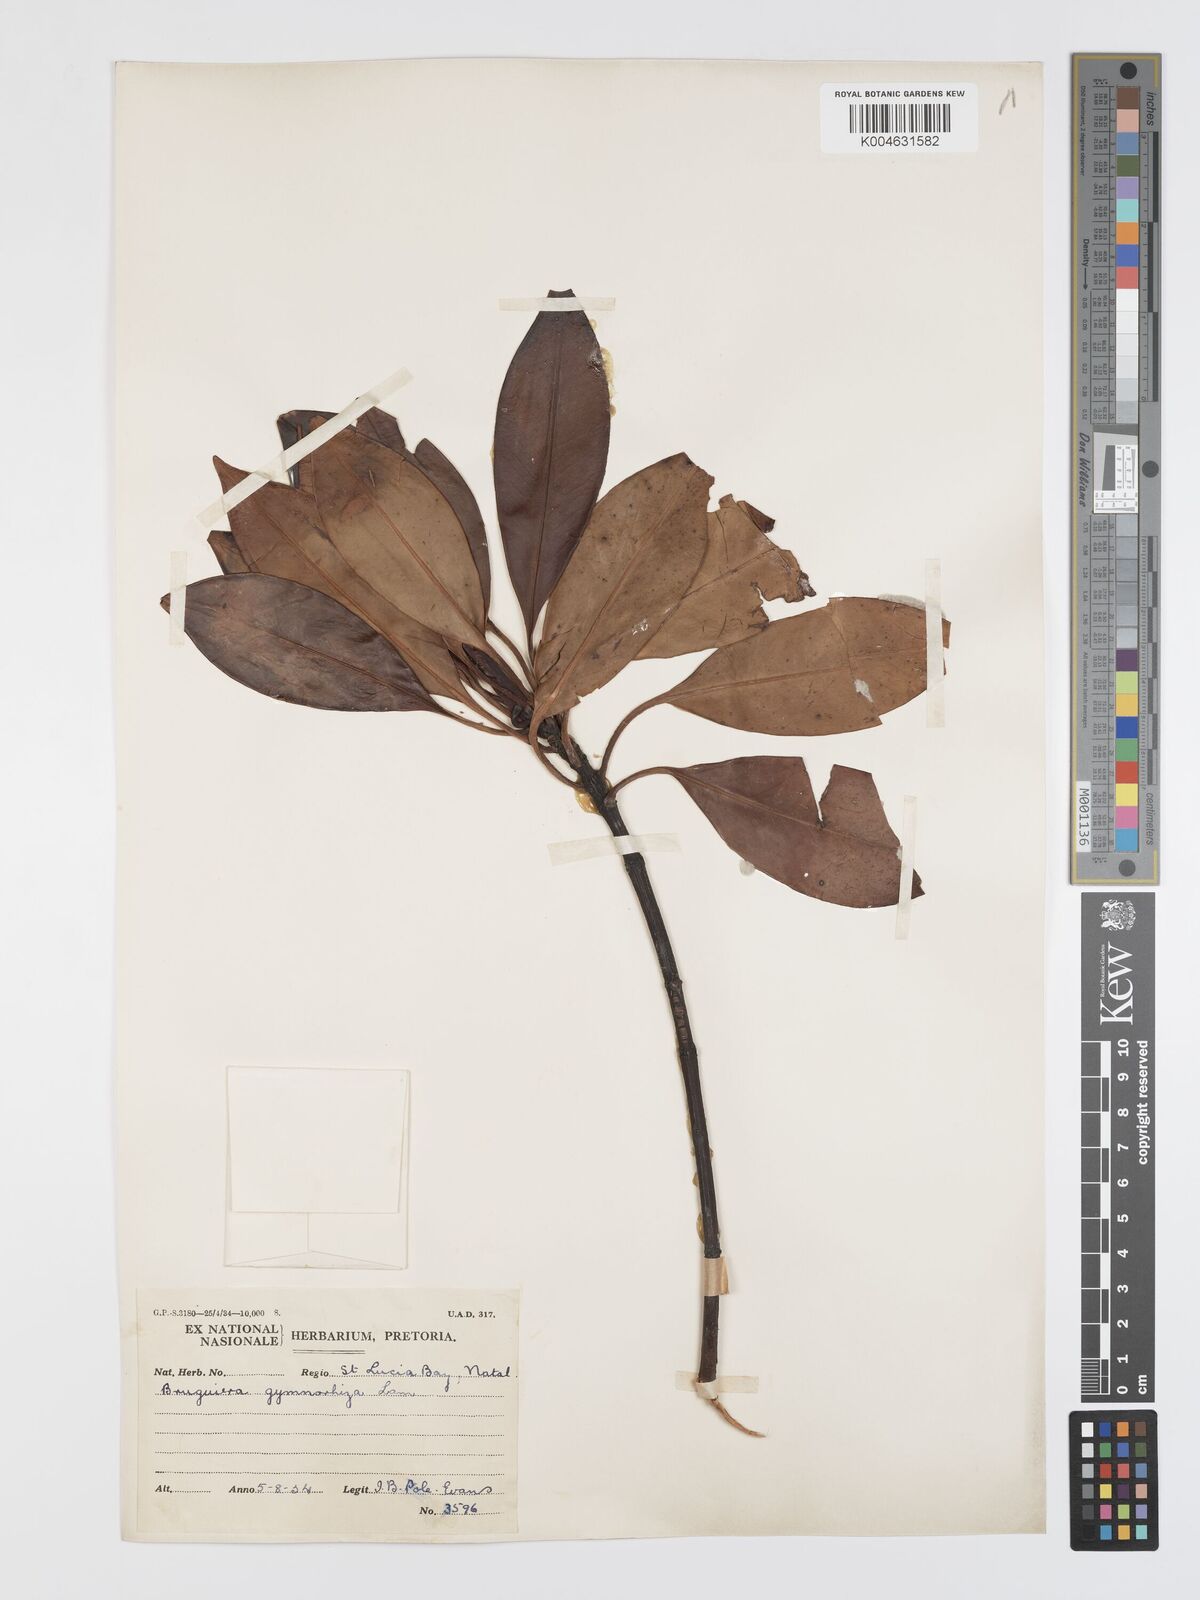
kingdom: Plantae
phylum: Tracheophyta
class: Magnoliopsida
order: Malpighiales
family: Rhizophoraceae
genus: Bruguiera
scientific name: Bruguiera
